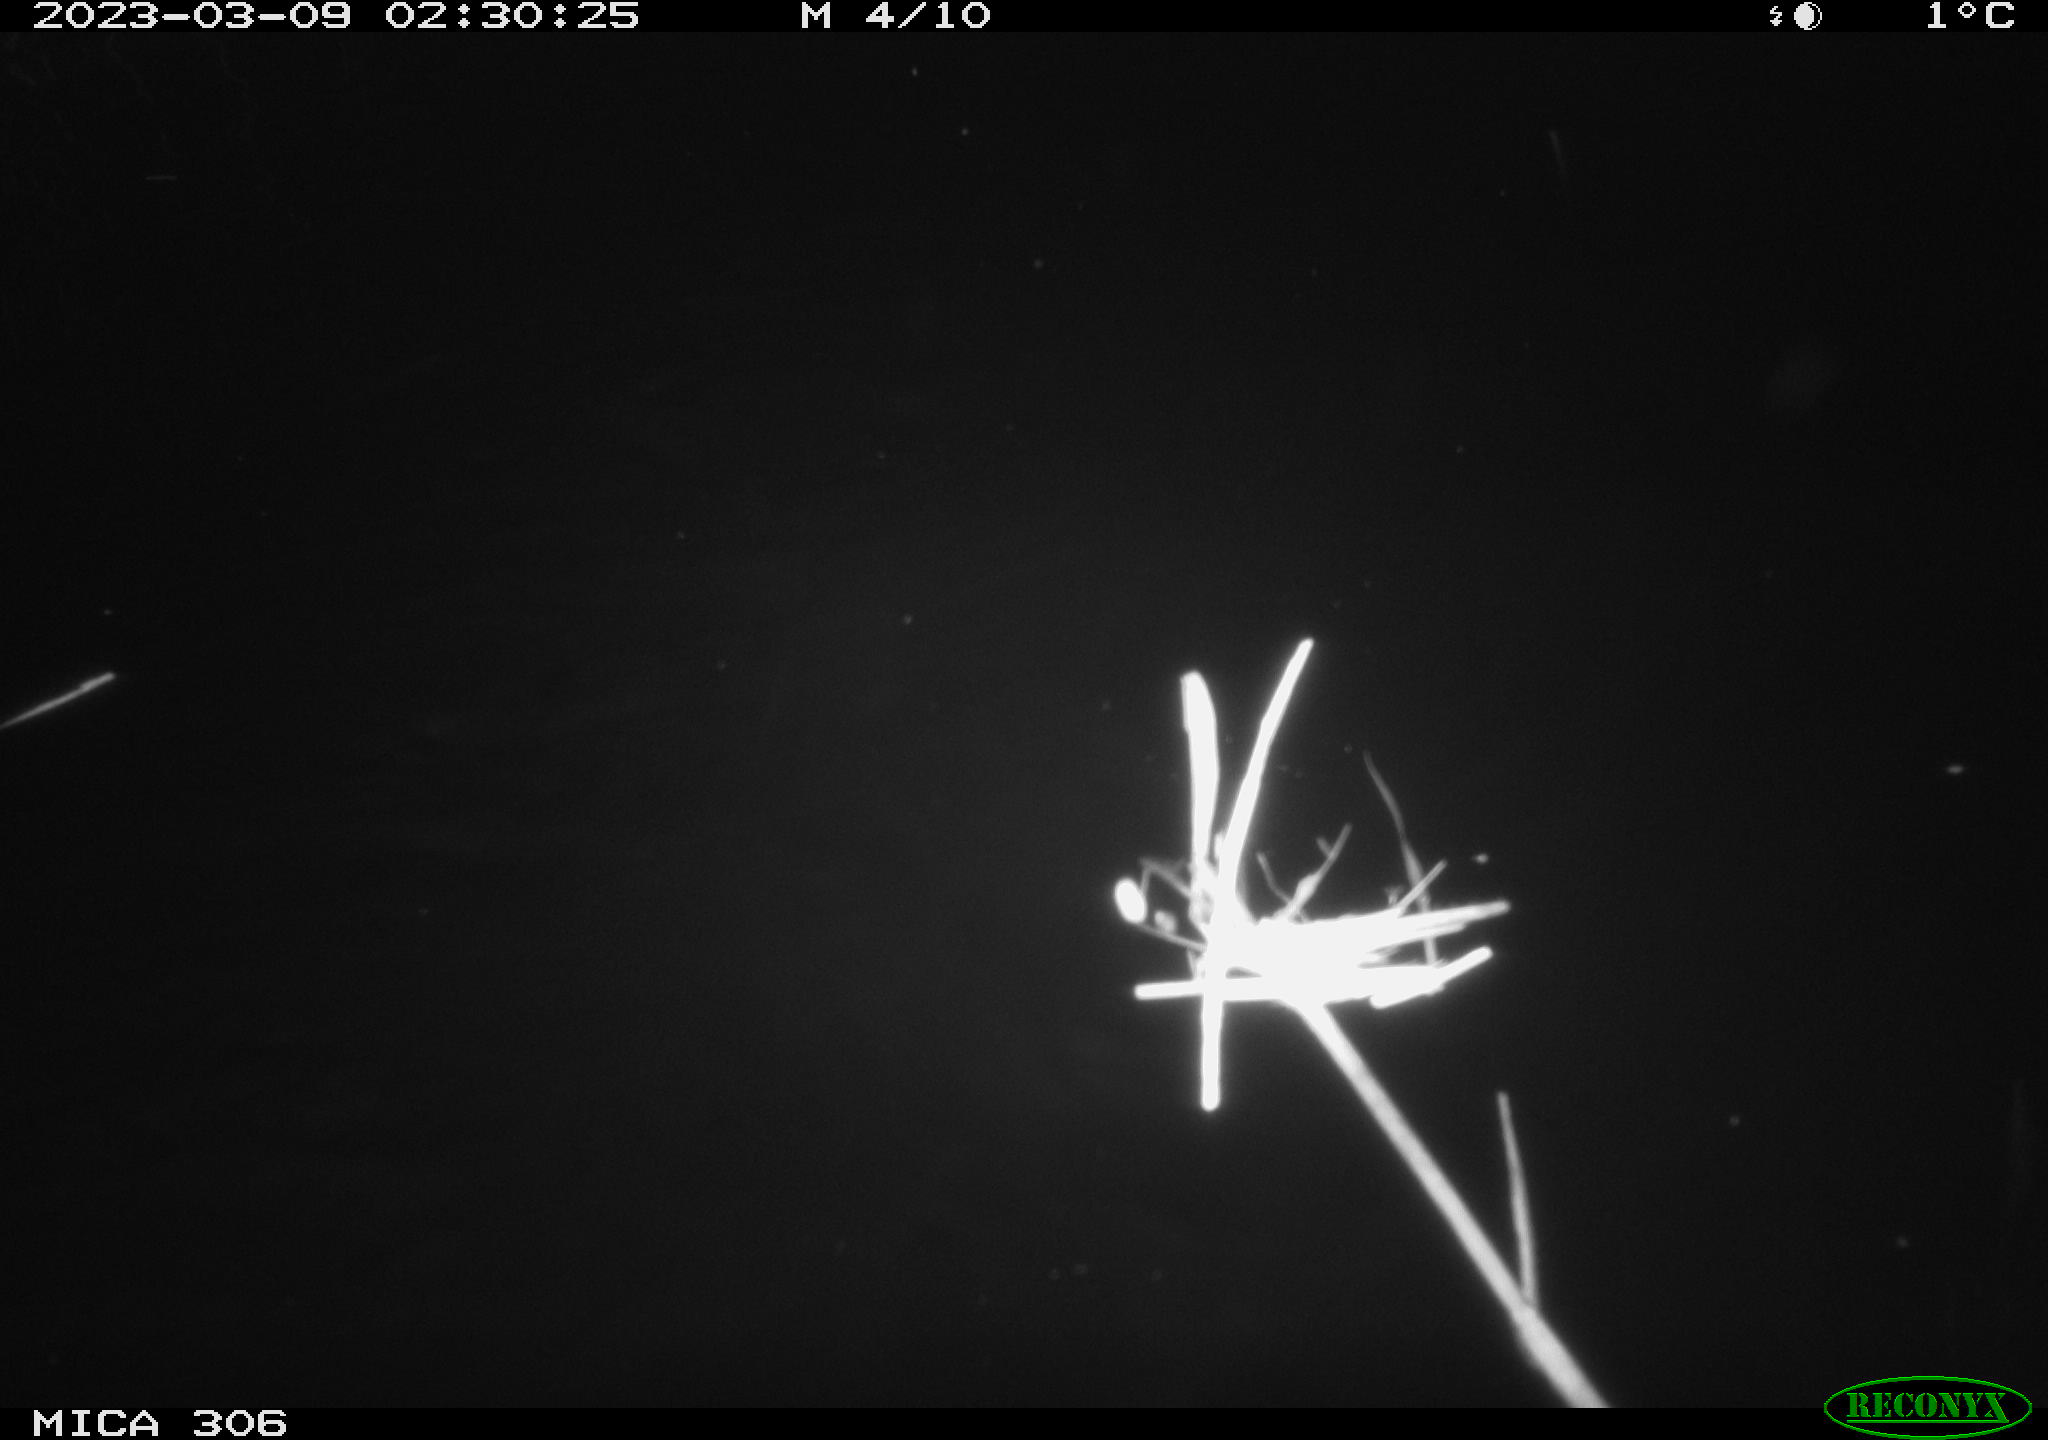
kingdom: Animalia
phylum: Chordata
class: Mammalia
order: Rodentia
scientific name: Rodentia
